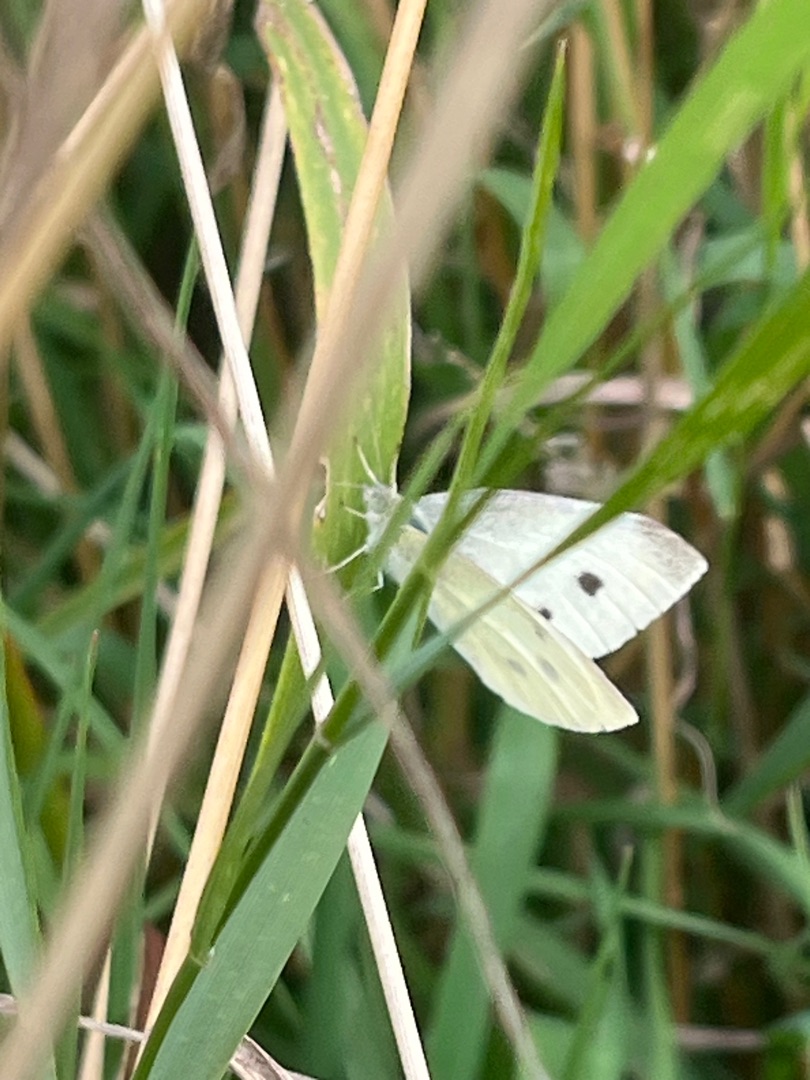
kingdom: Animalia
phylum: Arthropoda
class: Insecta
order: Lepidoptera
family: Pieridae
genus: Pieris
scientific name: Pieris rapae
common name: Lille kålsommerfugl
